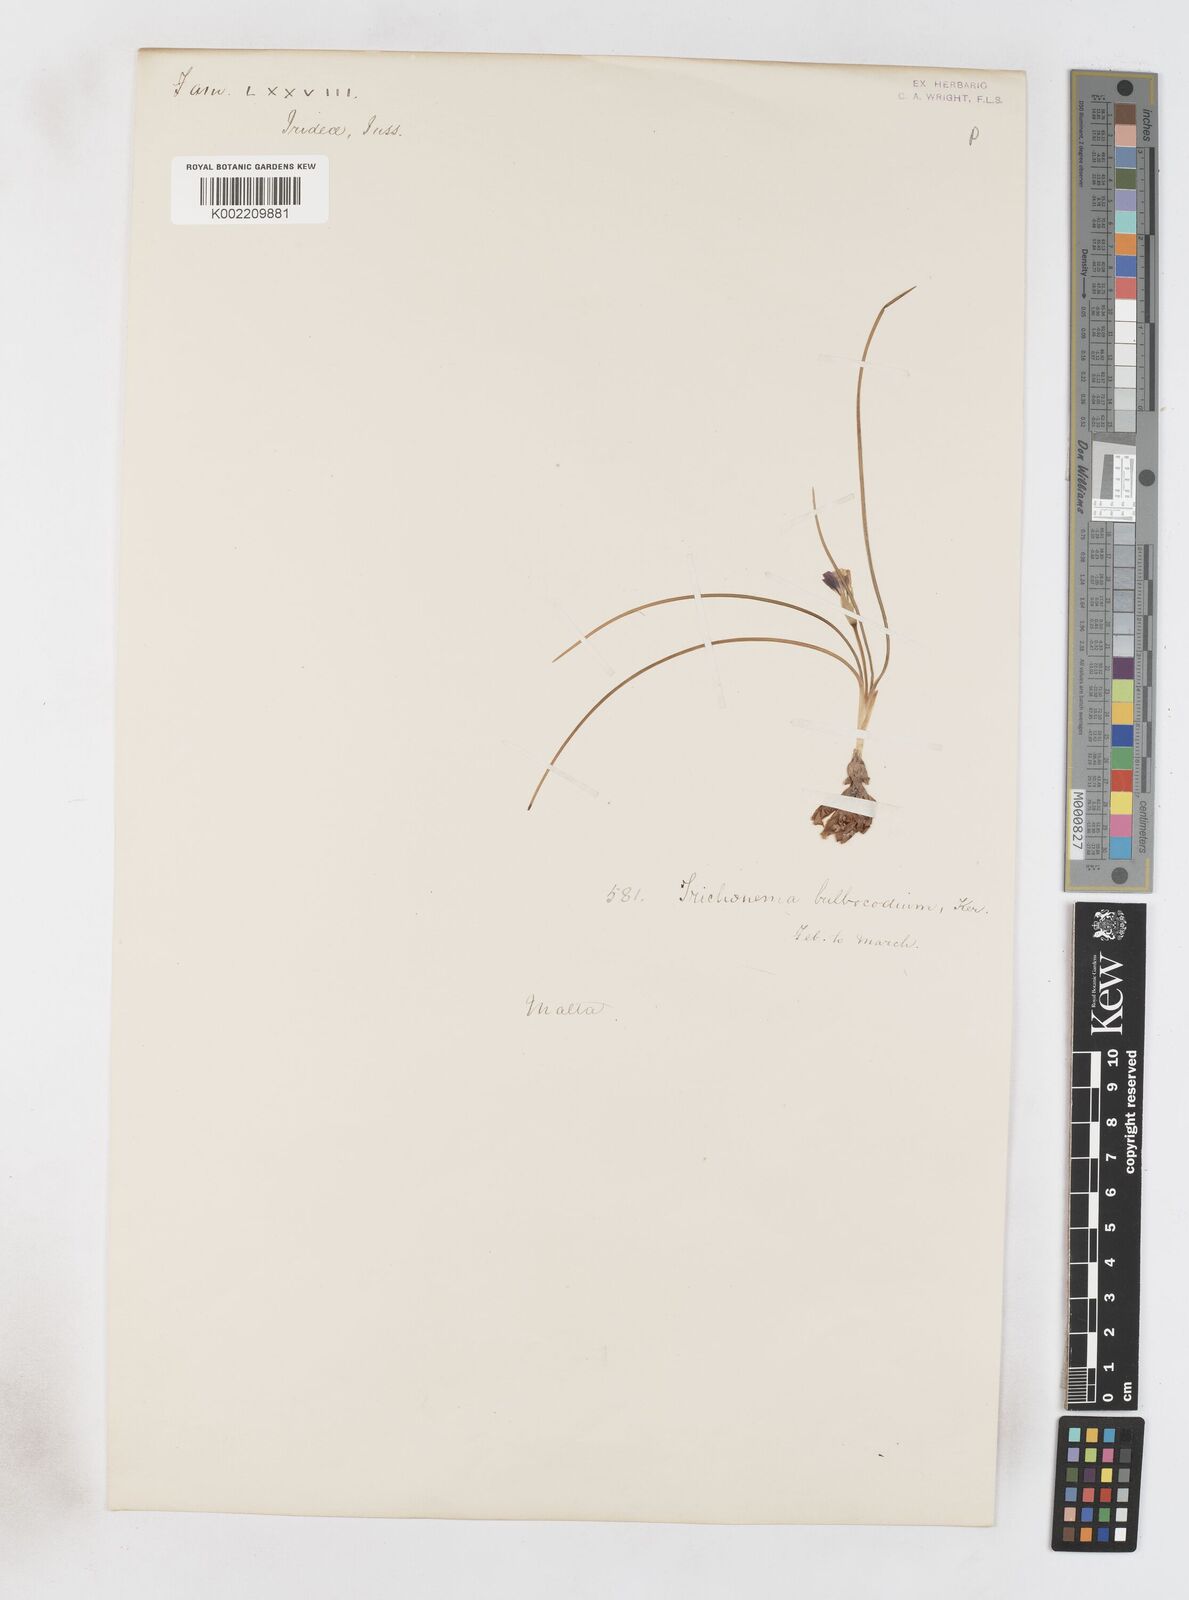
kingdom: Plantae
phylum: Tracheophyta
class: Liliopsida
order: Asparagales
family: Iridaceae
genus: Romulea
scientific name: Romulea melitensis
